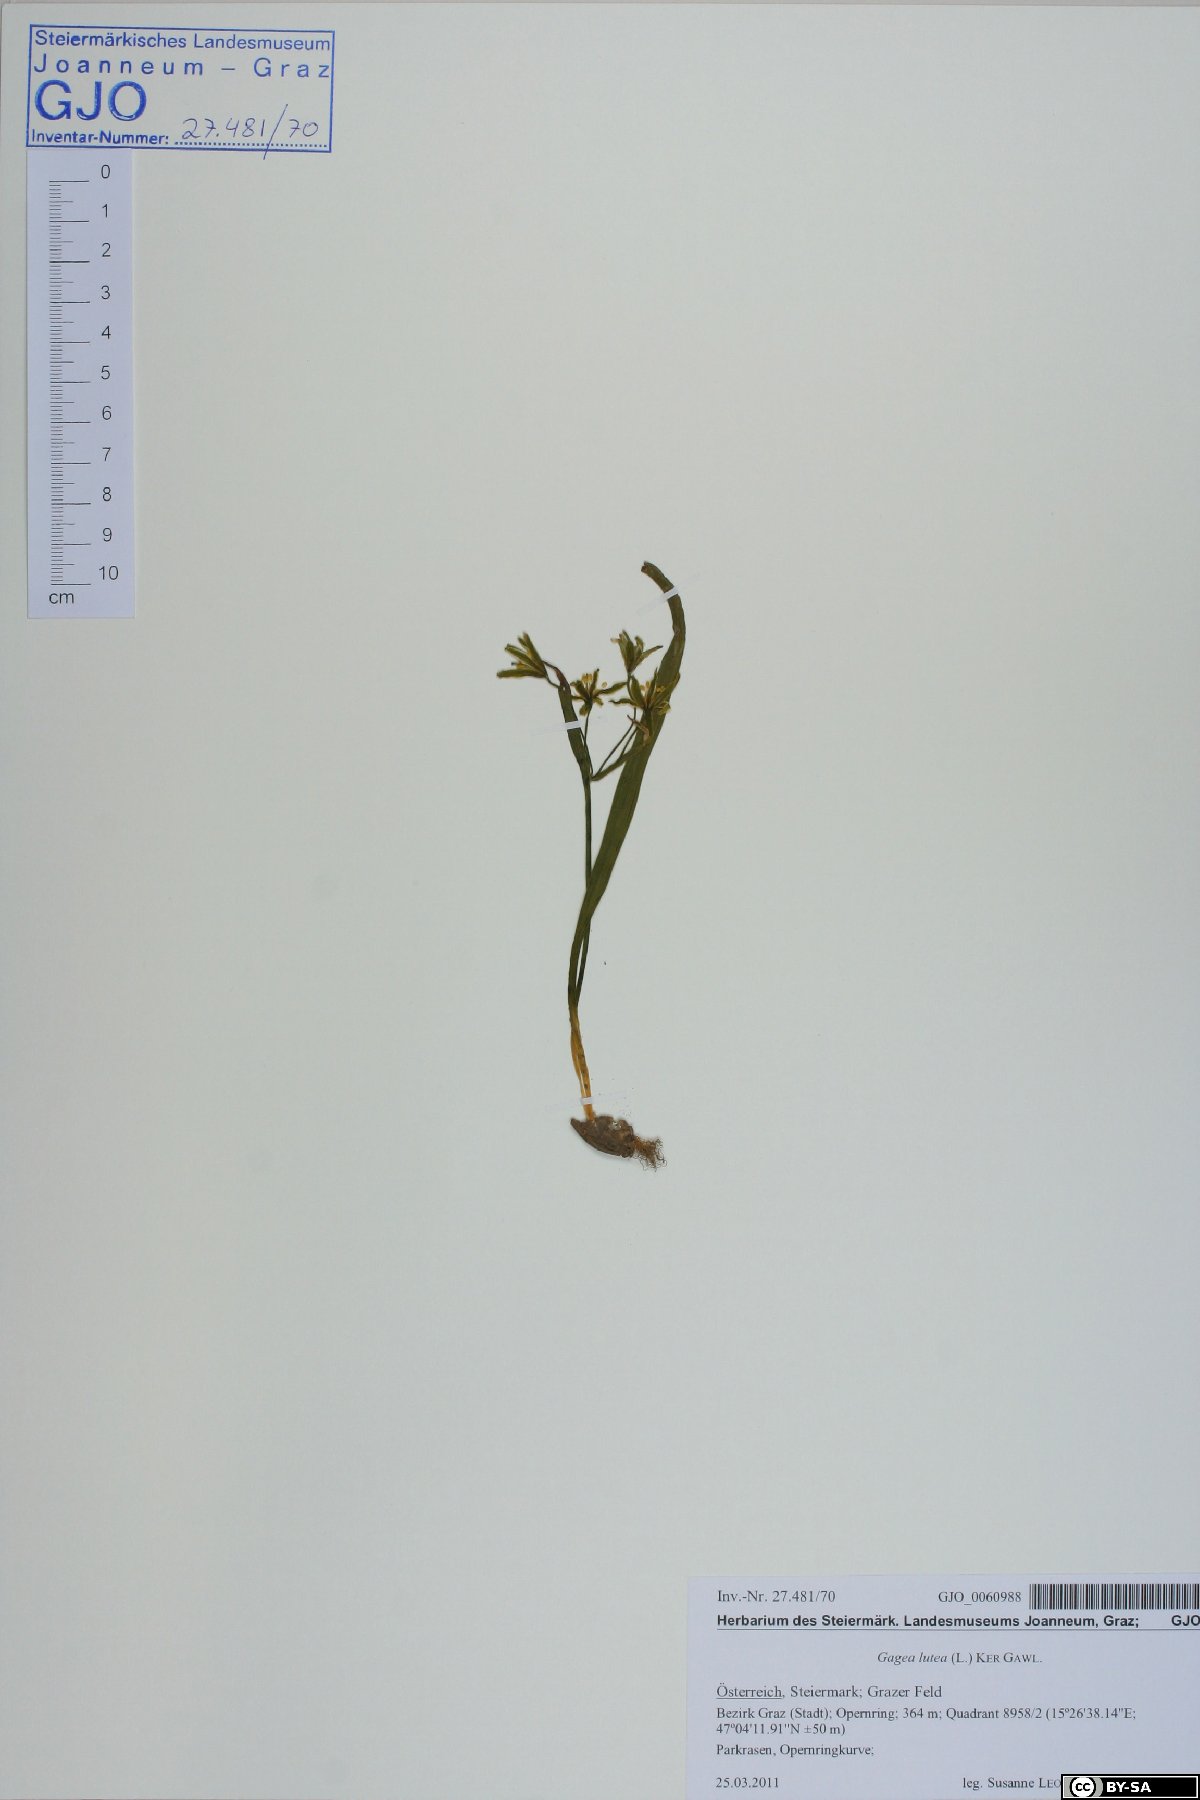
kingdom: Plantae
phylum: Tracheophyta
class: Liliopsida
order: Liliales
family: Liliaceae
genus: Gagea
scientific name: Gagea lutea
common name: Yellow star-of-bethlehem
